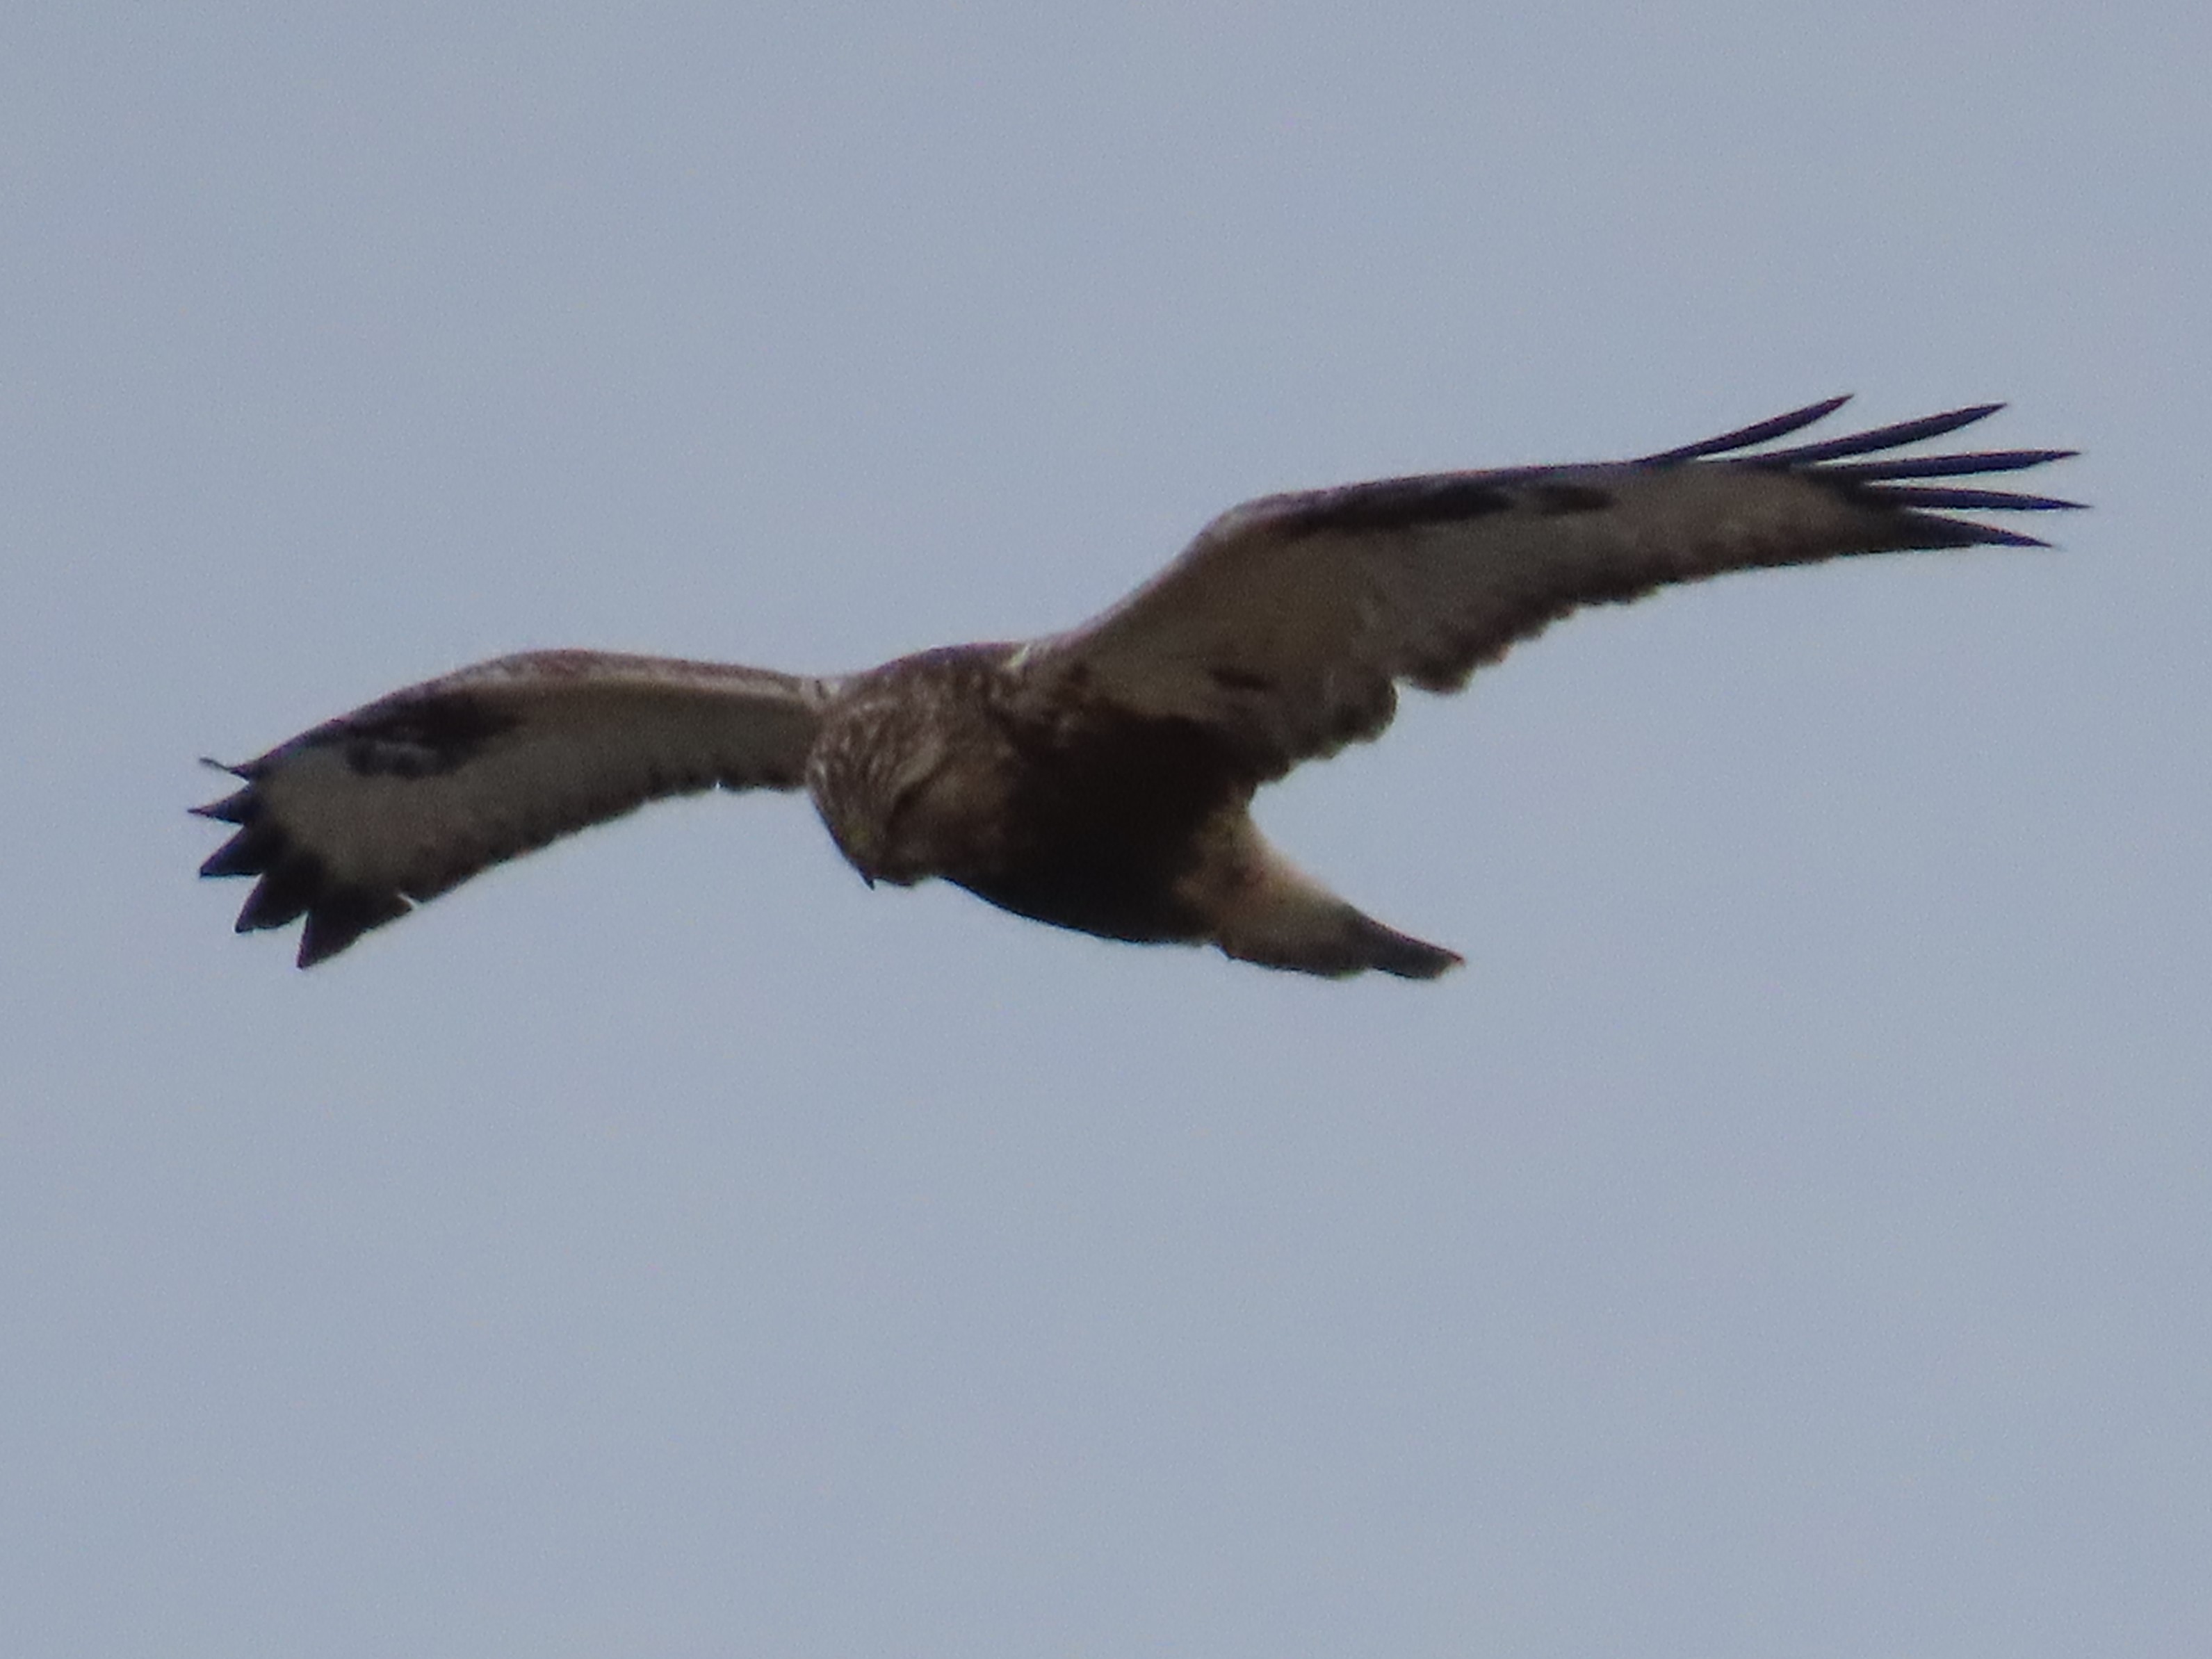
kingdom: Animalia
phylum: Chordata
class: Aves
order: Accipitriformes
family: Accipitridae
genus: Buteo
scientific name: Buteo lagopus
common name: Fjeldvåge
